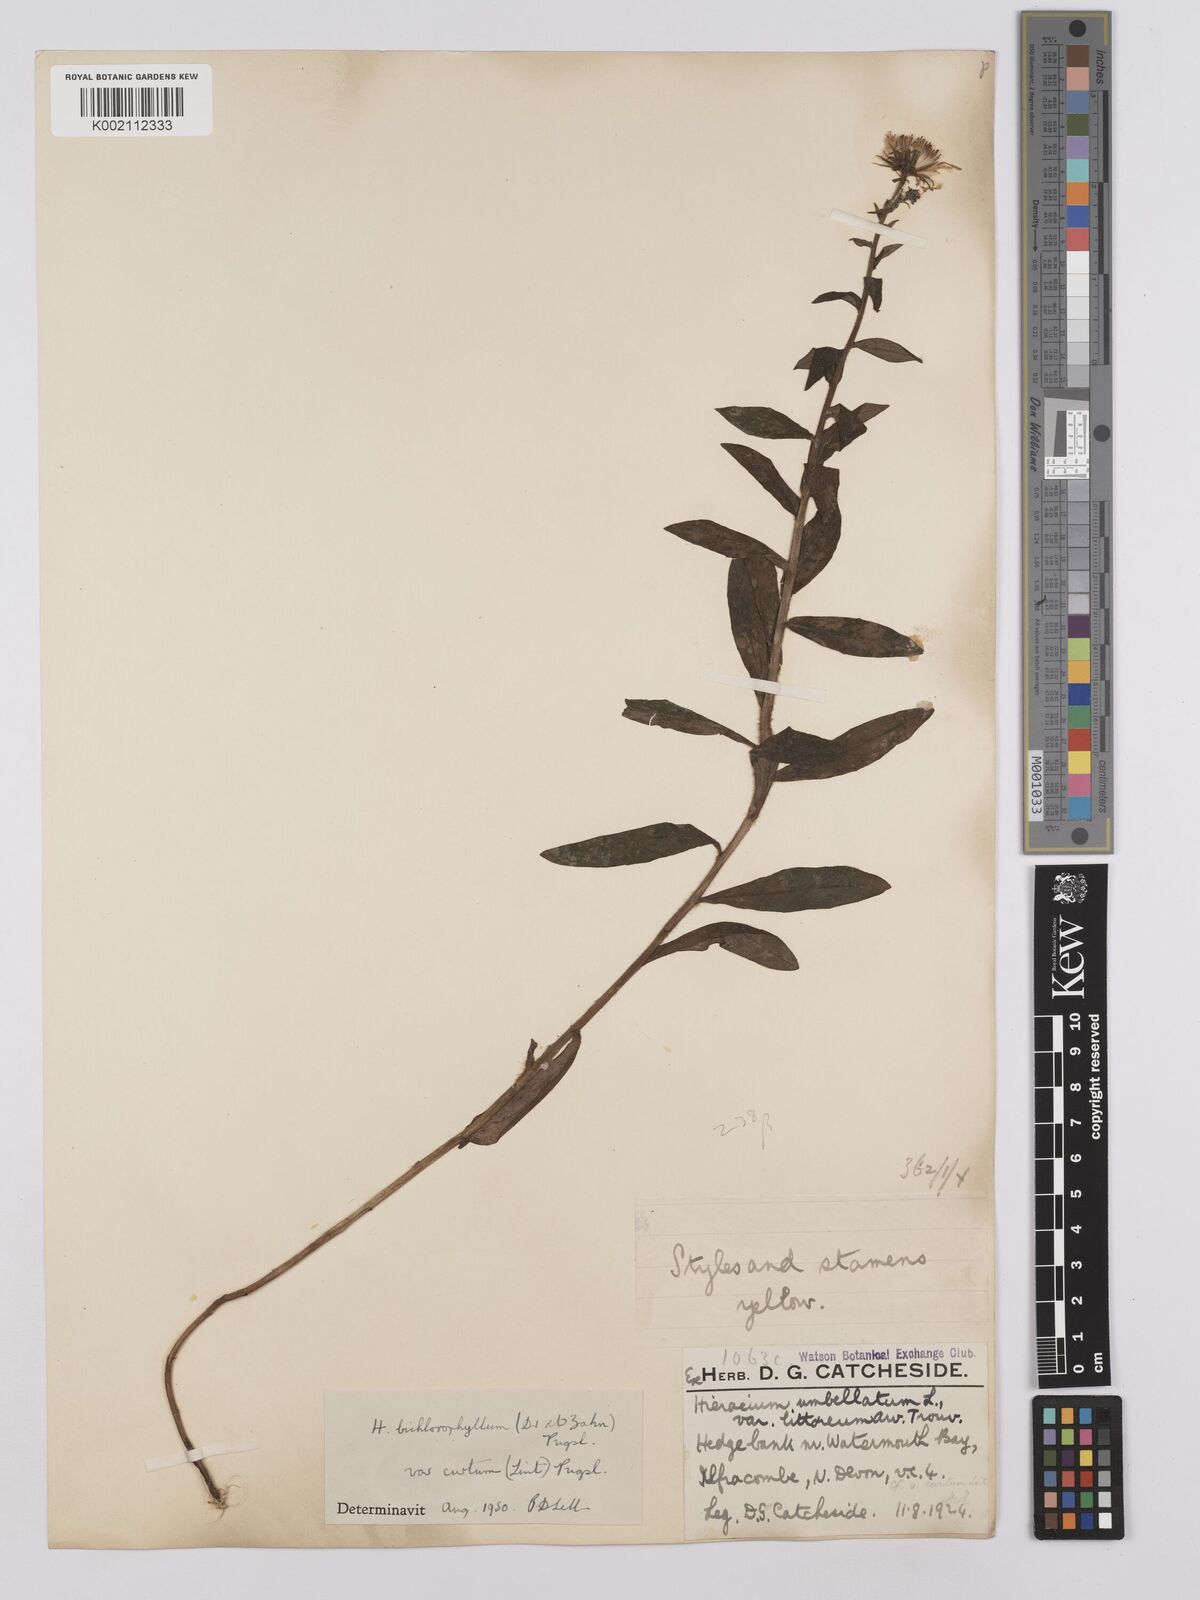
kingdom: Plantae
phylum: Tracheophyta
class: Magnoliopsida
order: Asterales
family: Asteraceae
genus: Hieracium
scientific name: Hieracium umbellatum
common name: Northern hawkweed
